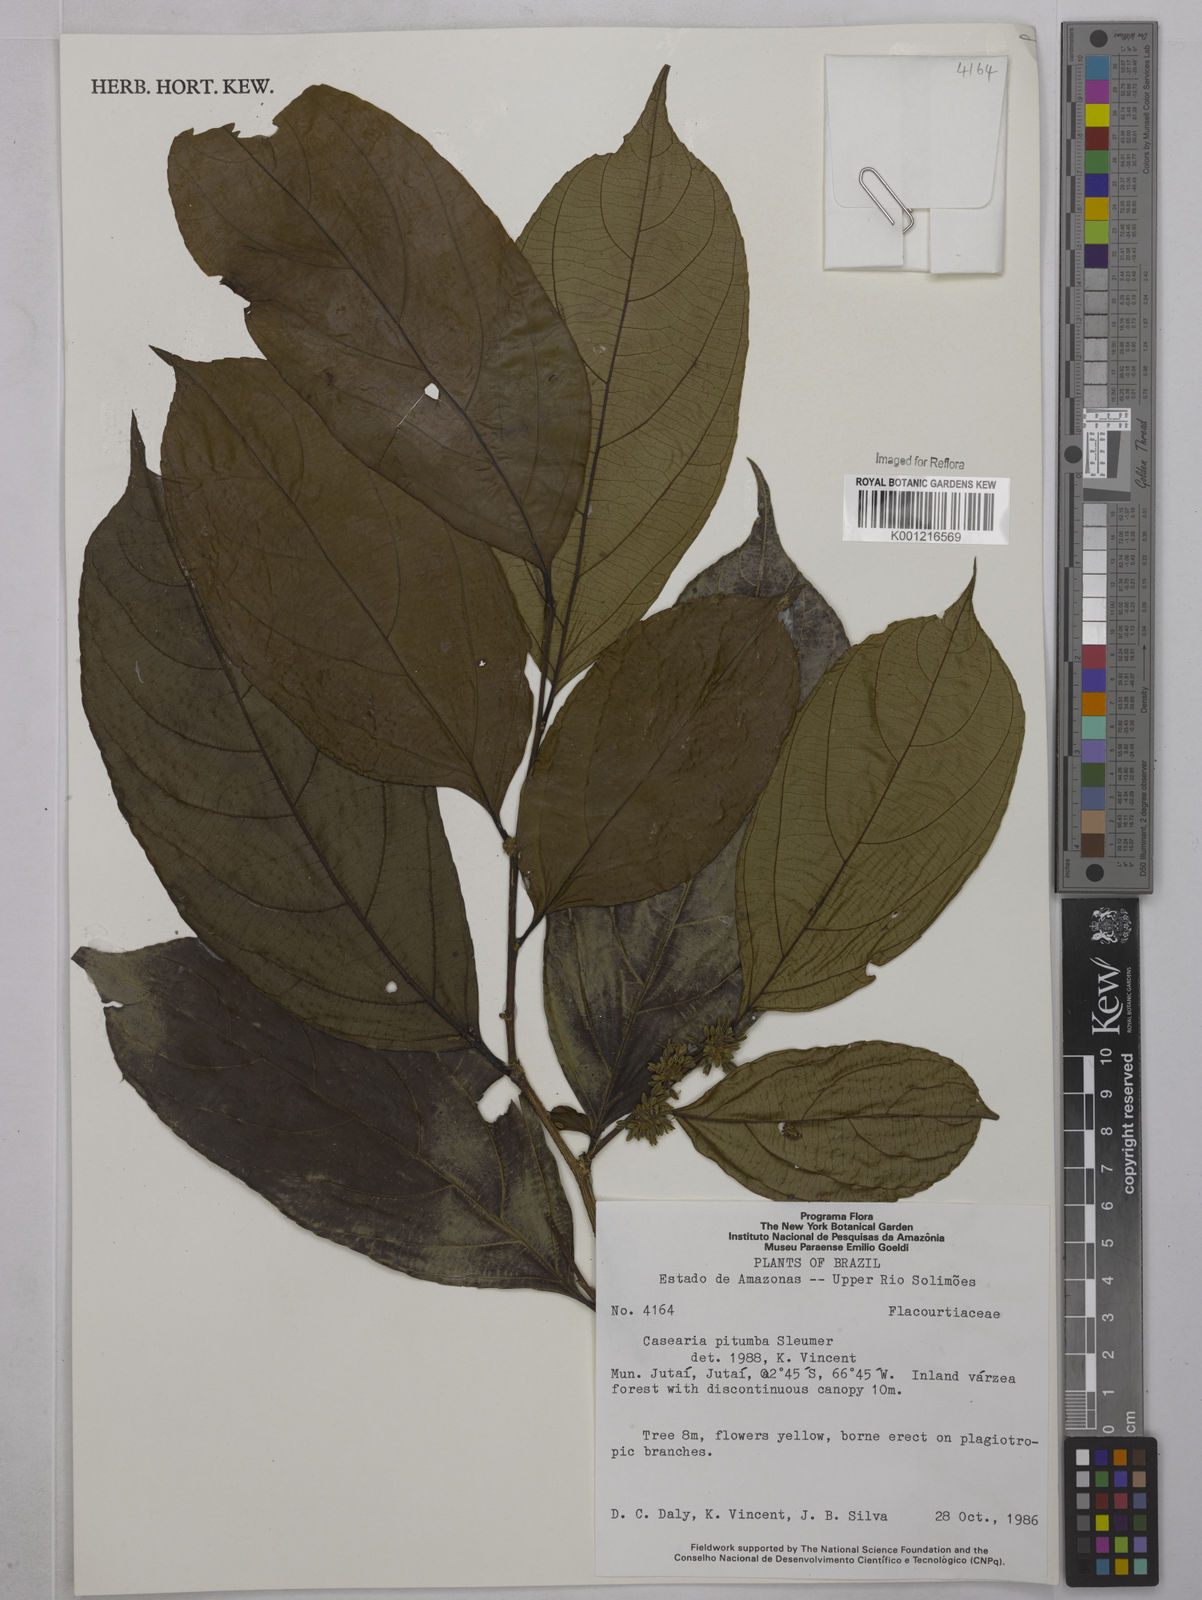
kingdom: Plantae
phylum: Tracheophyta
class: Magnoliopsida
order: Malpighiales
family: Salicaceae
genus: Casearia
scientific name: Casearia pitumba
